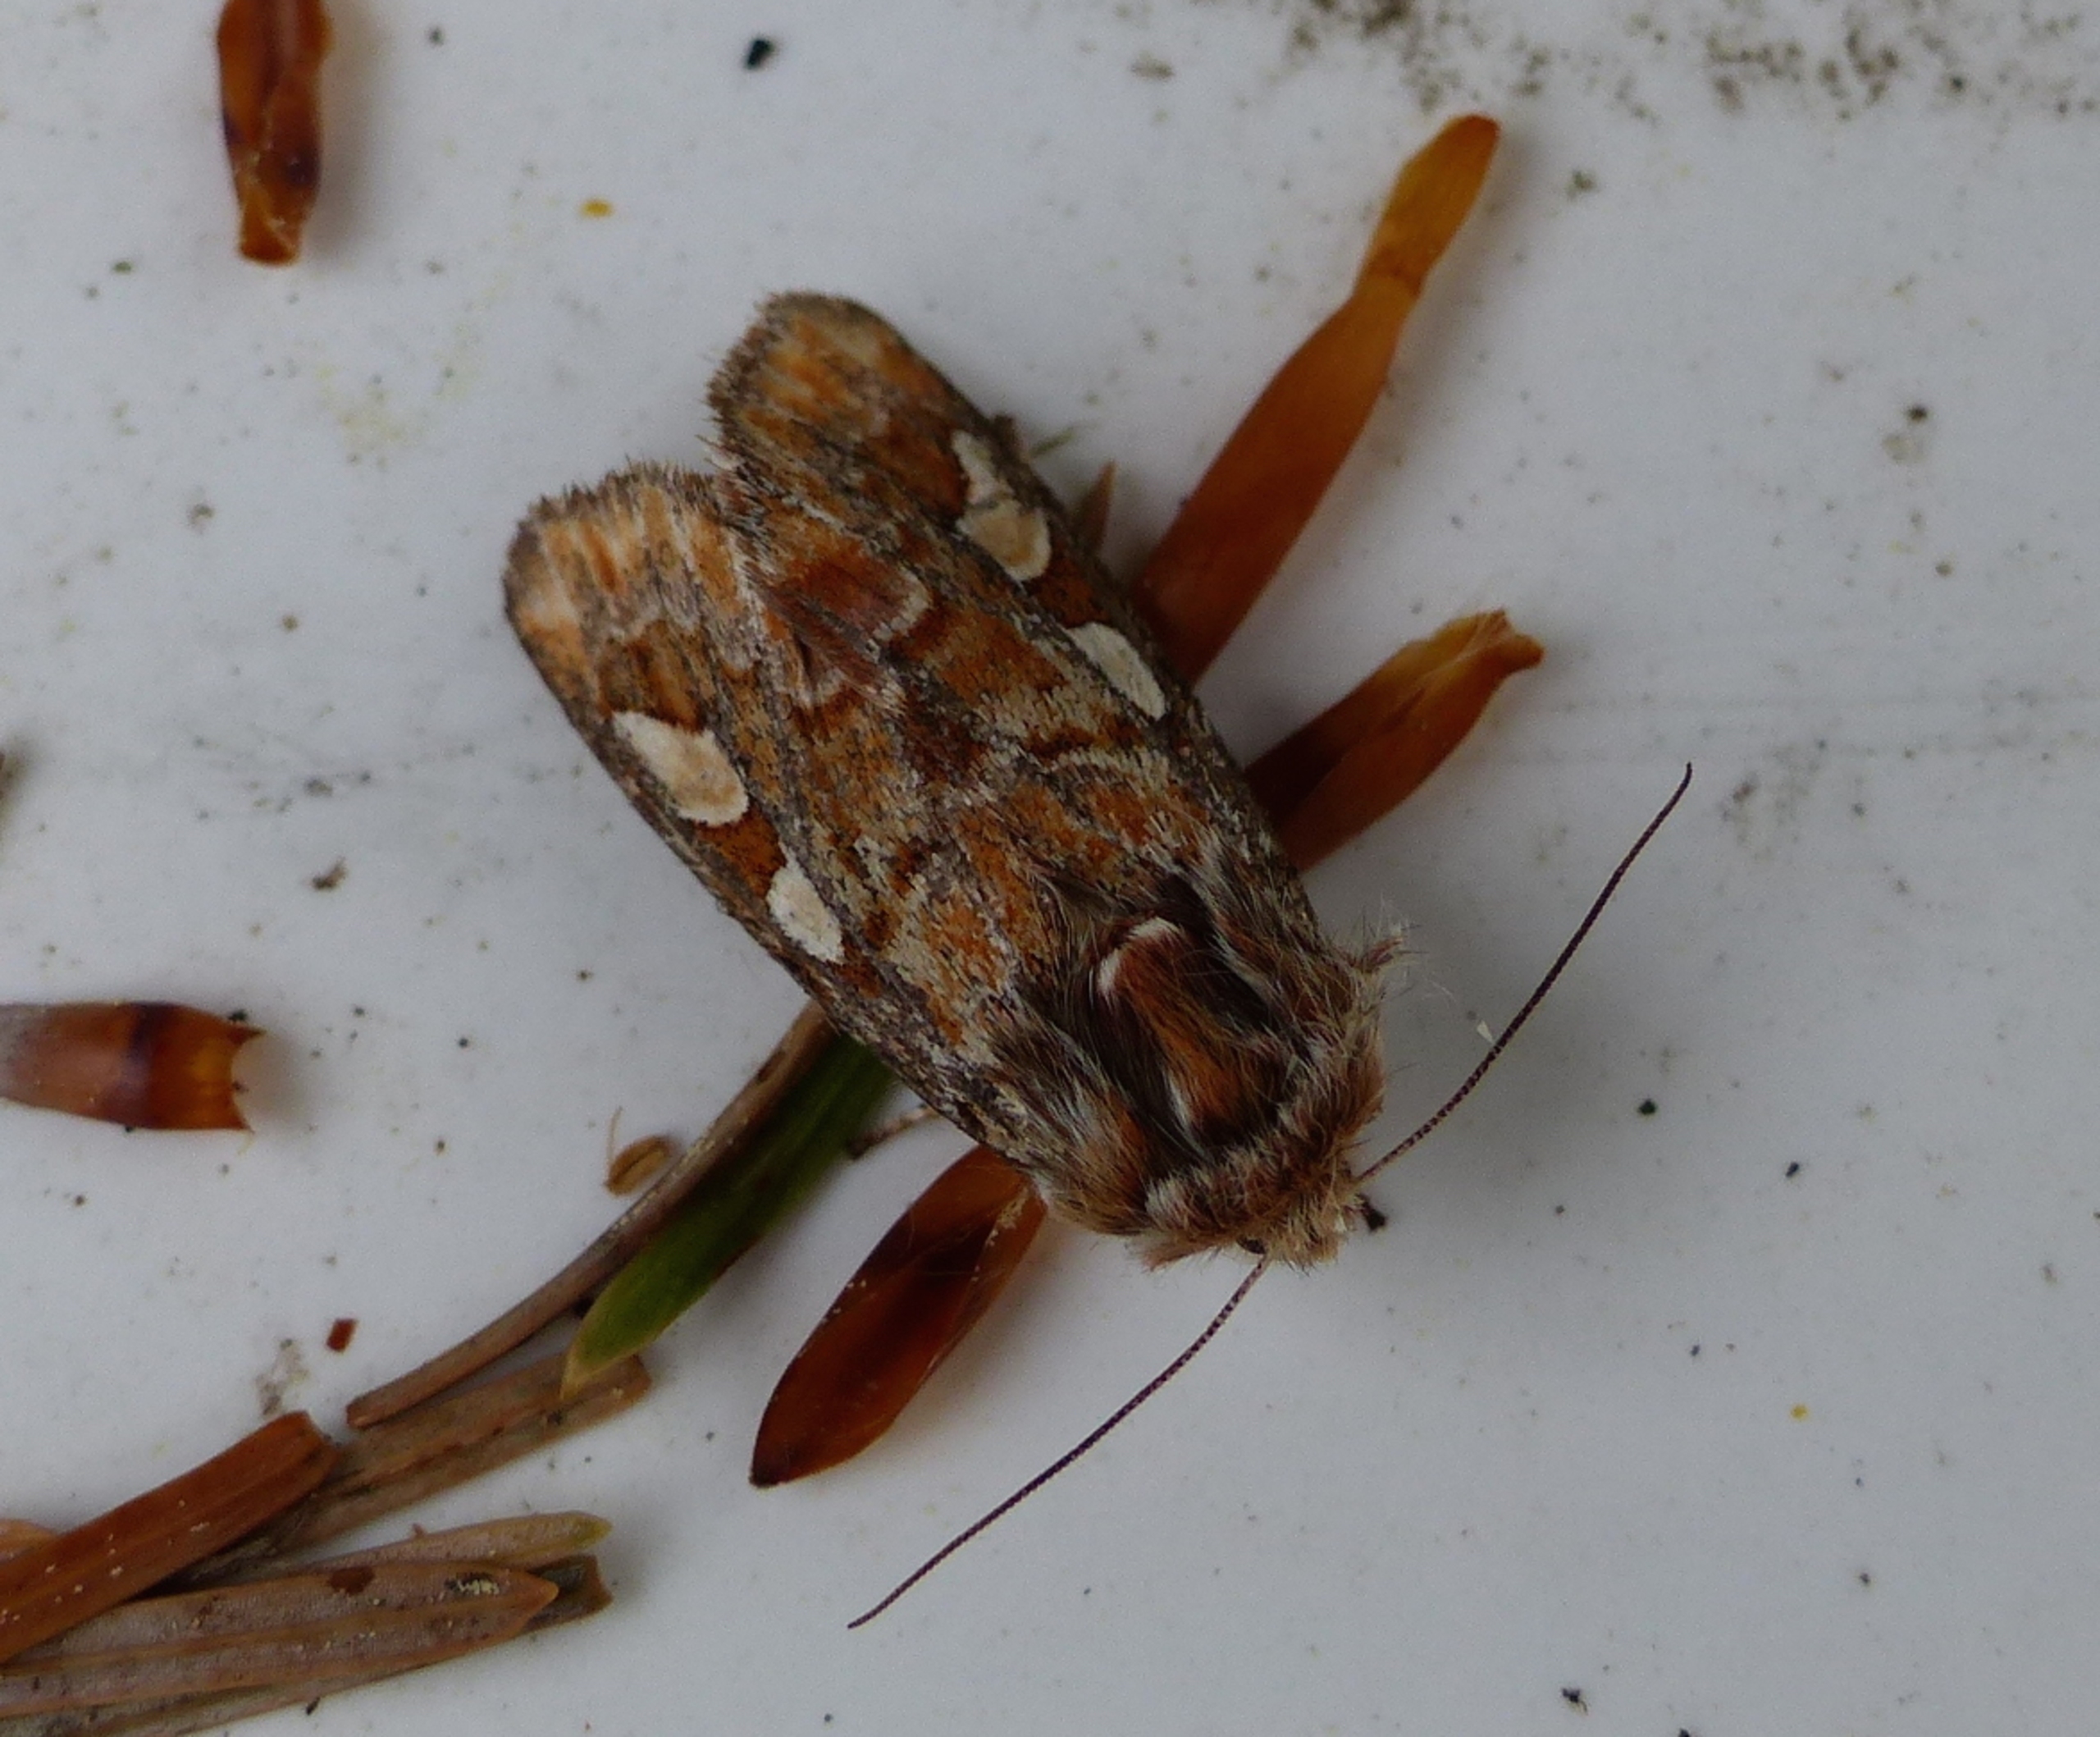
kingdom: Animalia
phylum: Arthropoda
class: Insecta
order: Lepidoptera
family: Noctuidae
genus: Panolis
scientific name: Panolis flammea
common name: Fyrreugle
